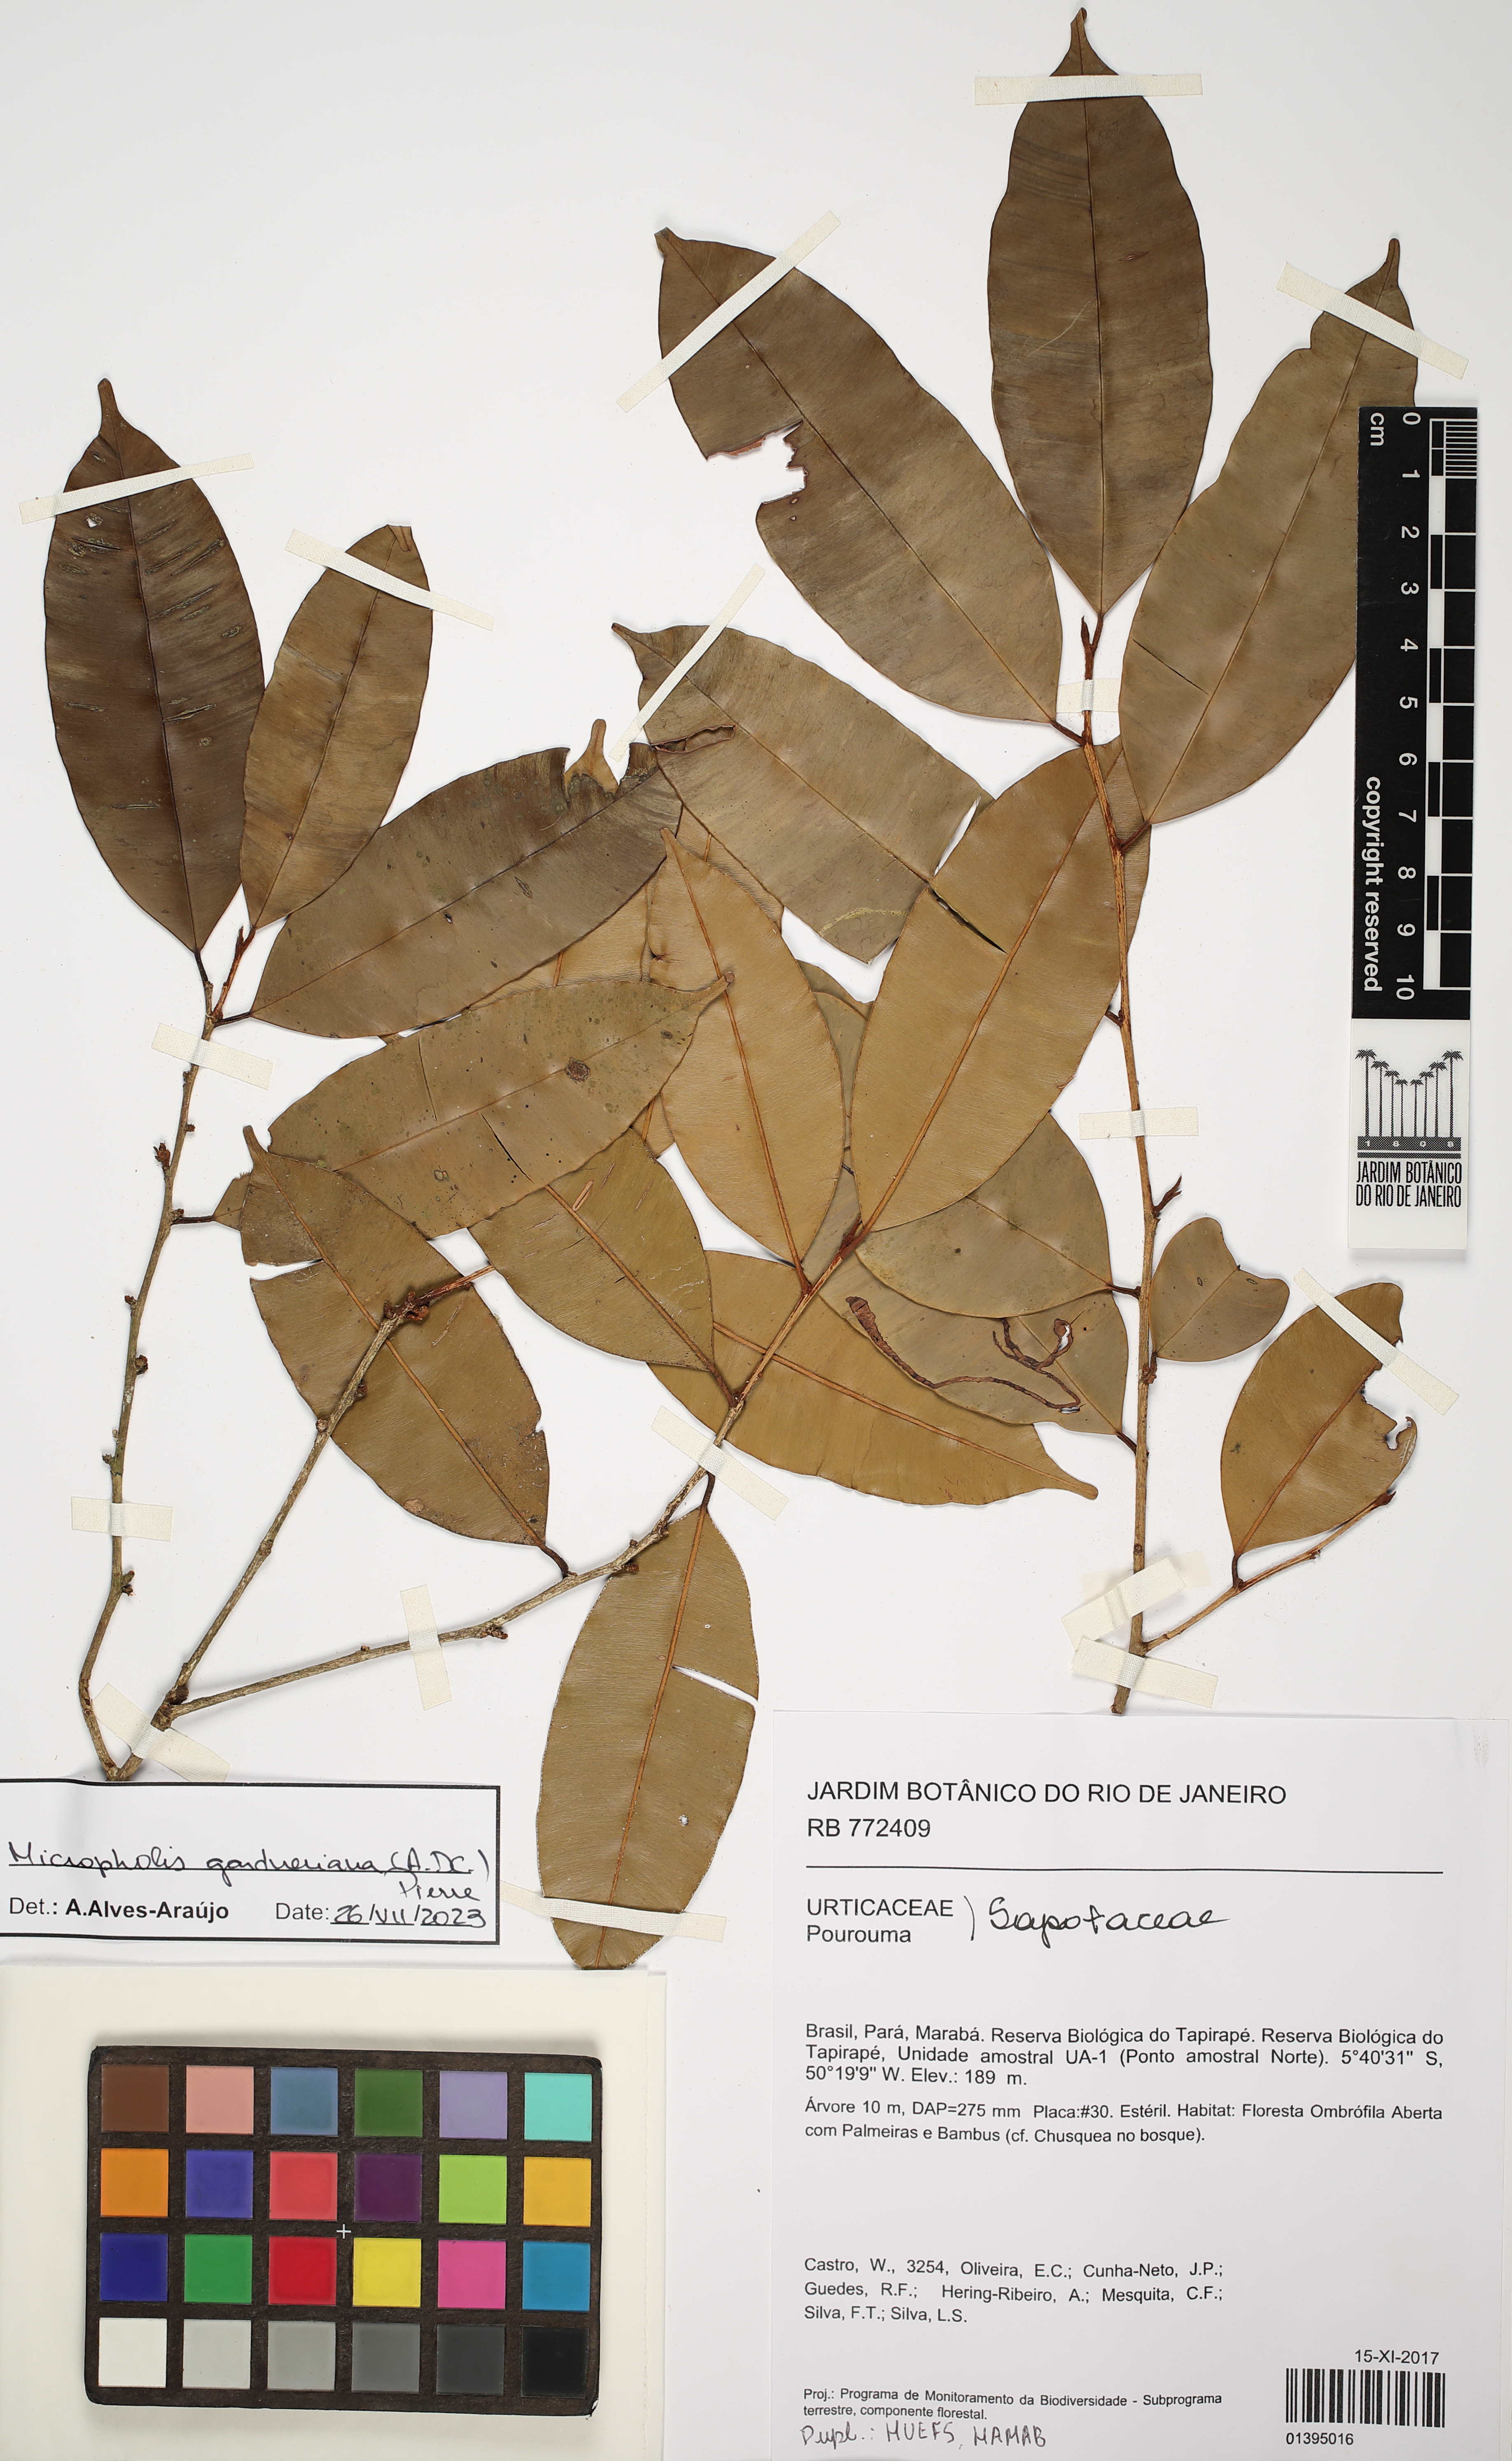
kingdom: Plantae
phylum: Tracheophyta
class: Magnoliopsida
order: Ericales
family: Sapotaceae
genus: Micropholis
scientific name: Micropholis gardneriana
